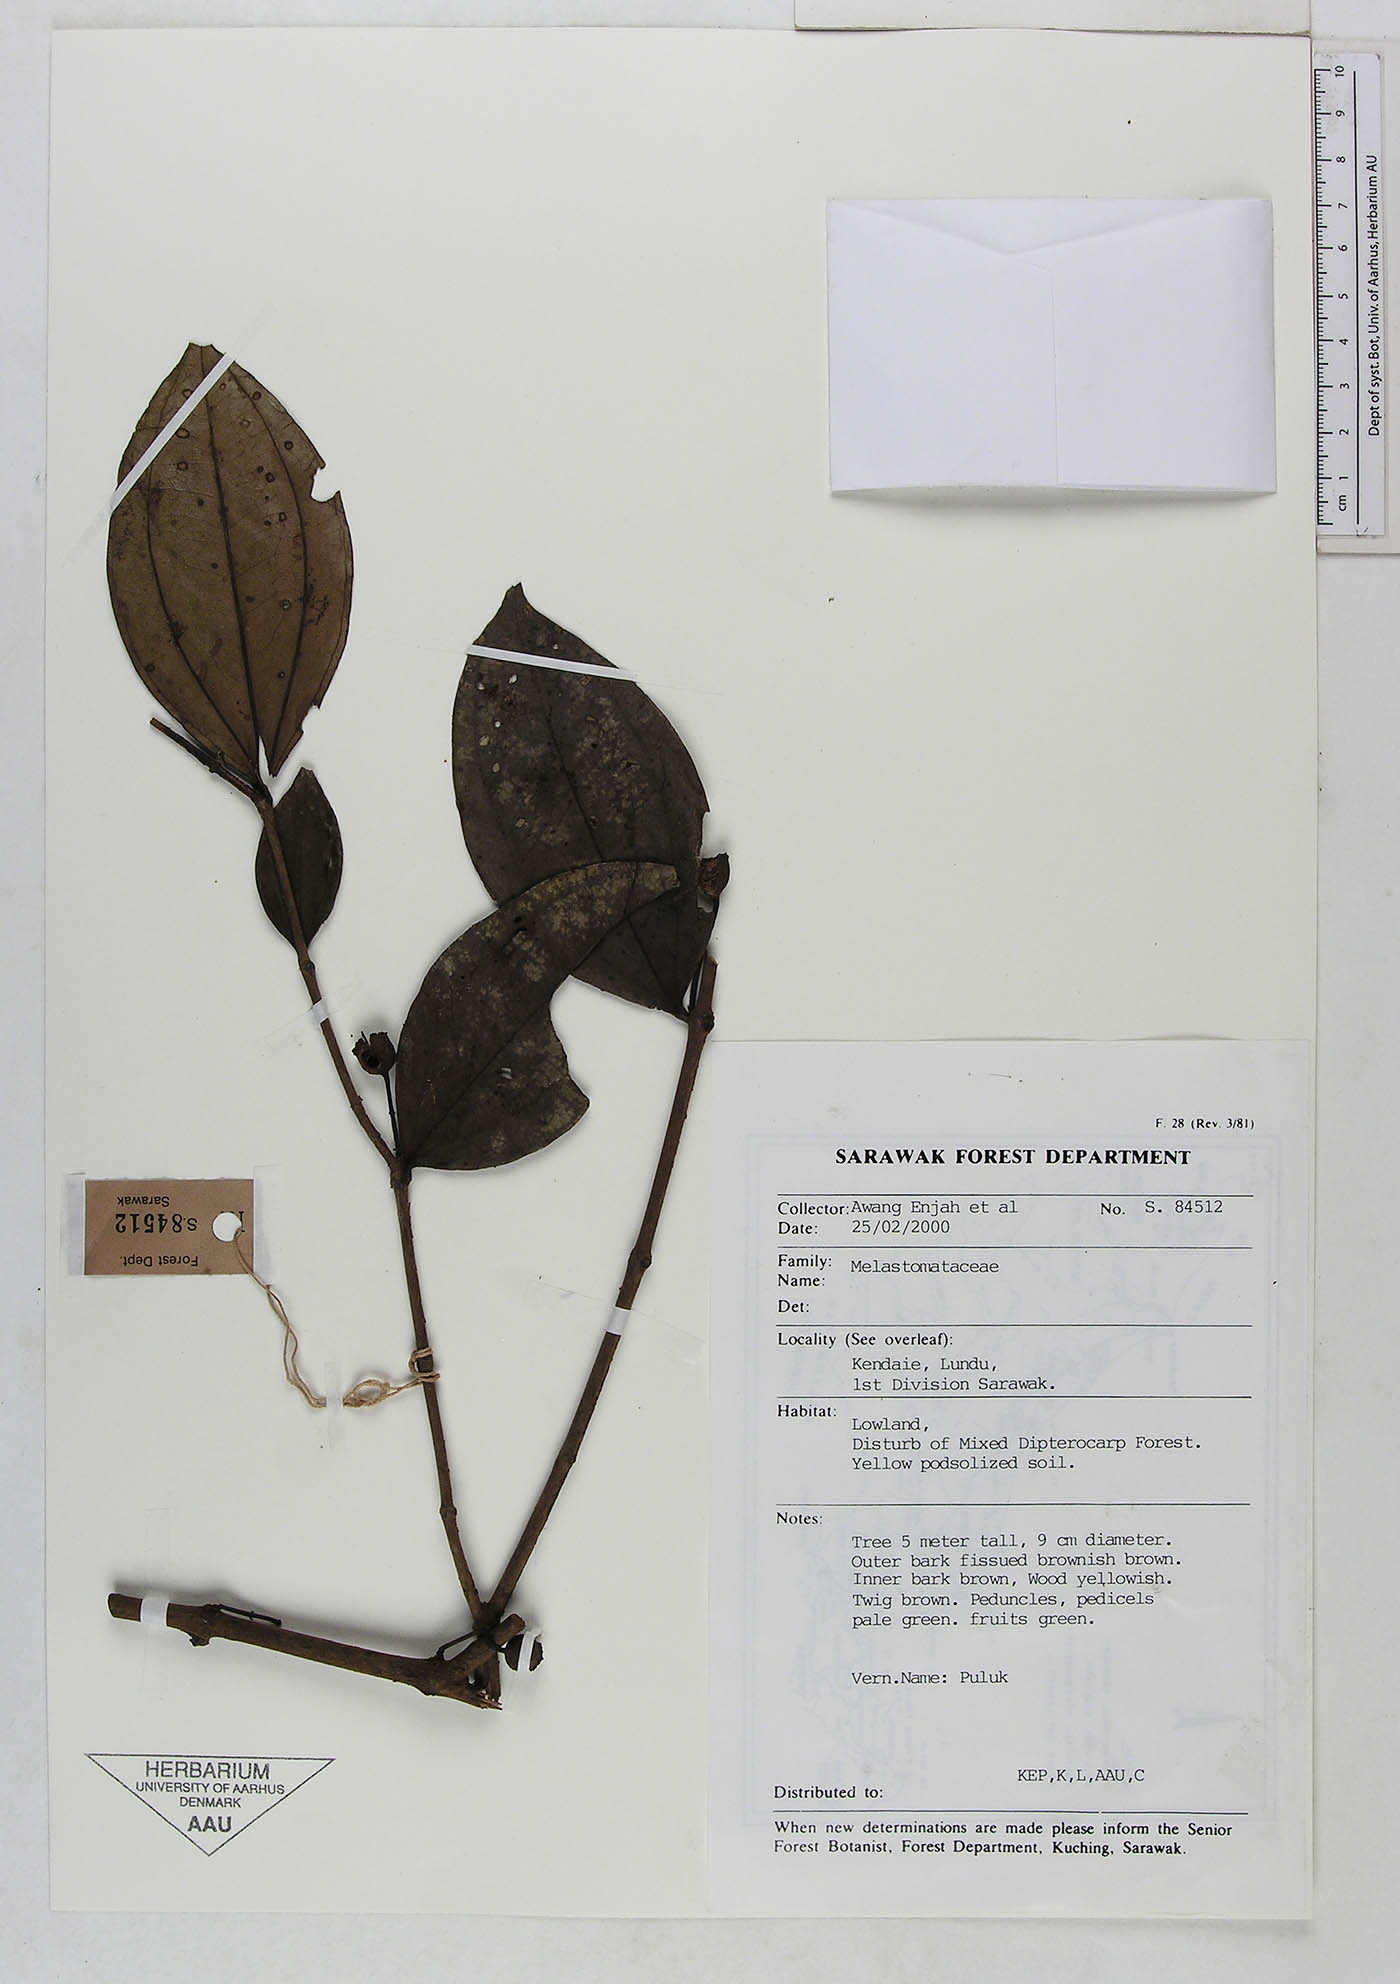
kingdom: Plantae
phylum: Tracheophyta
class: Magnoliopsida
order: Myrtales
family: Melastomataceae
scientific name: Melastomataceae
